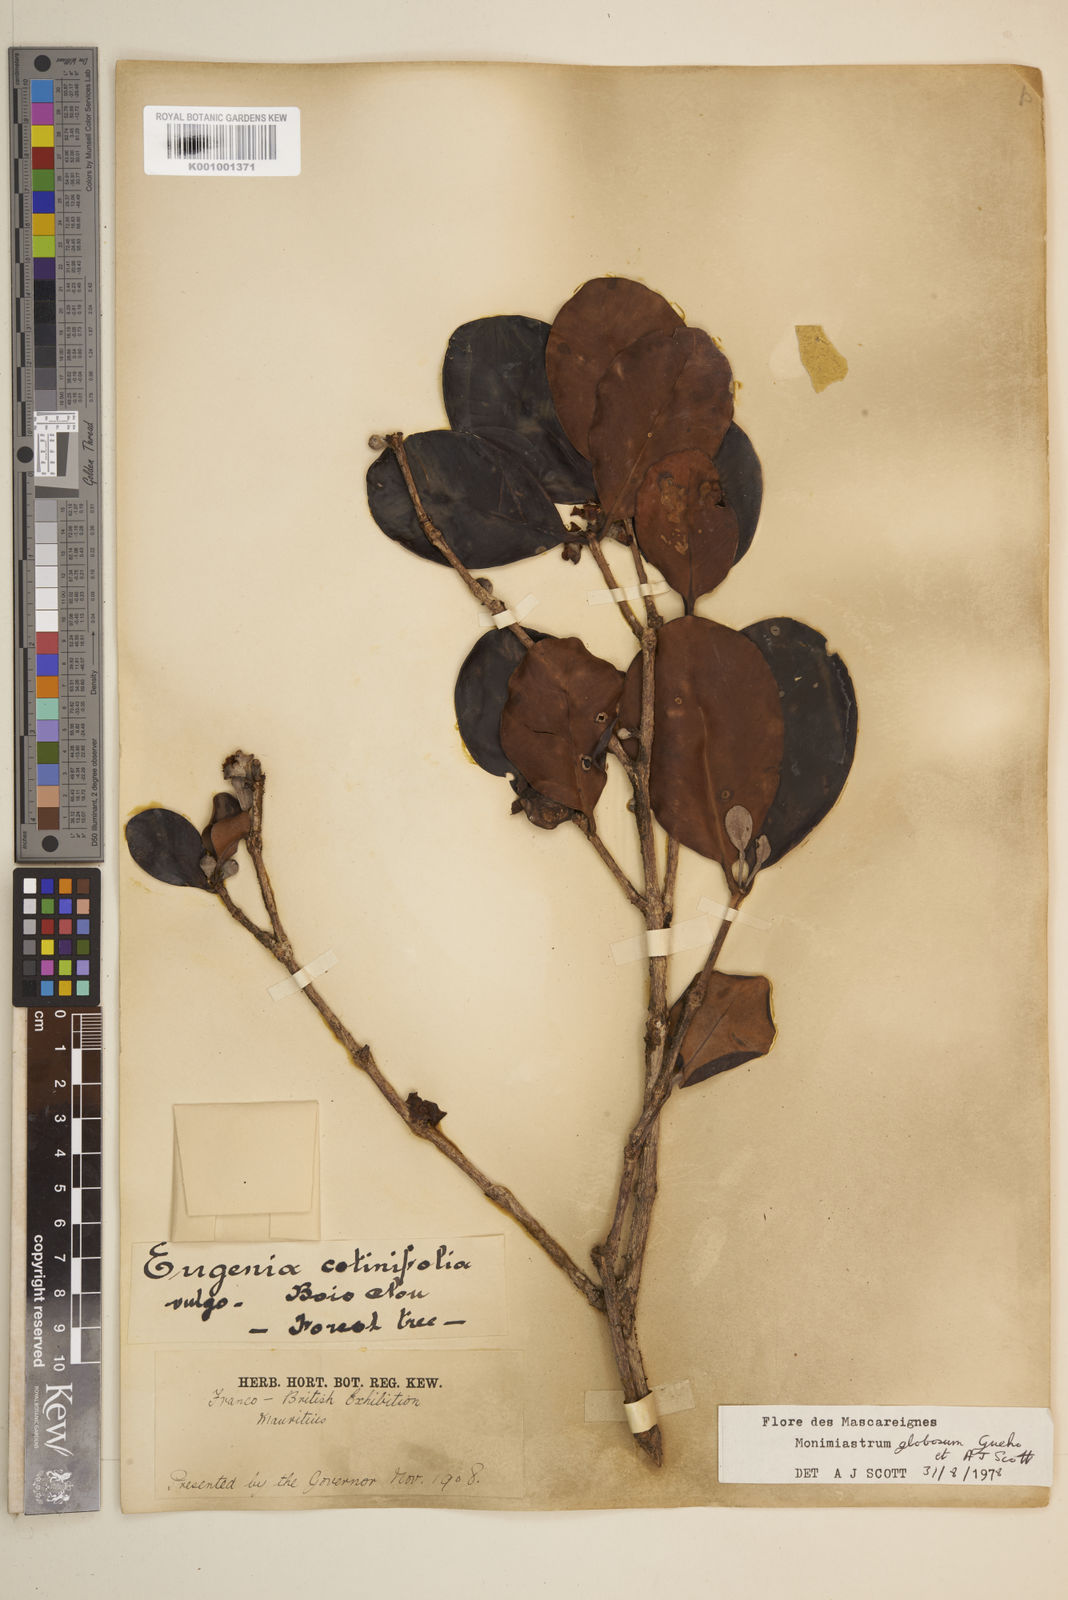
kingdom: Plantae
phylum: Tracheophyta
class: Magnoliopsida
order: Myrtales
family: Myrtaceae
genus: Eugenia
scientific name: Eugenia kanakana
